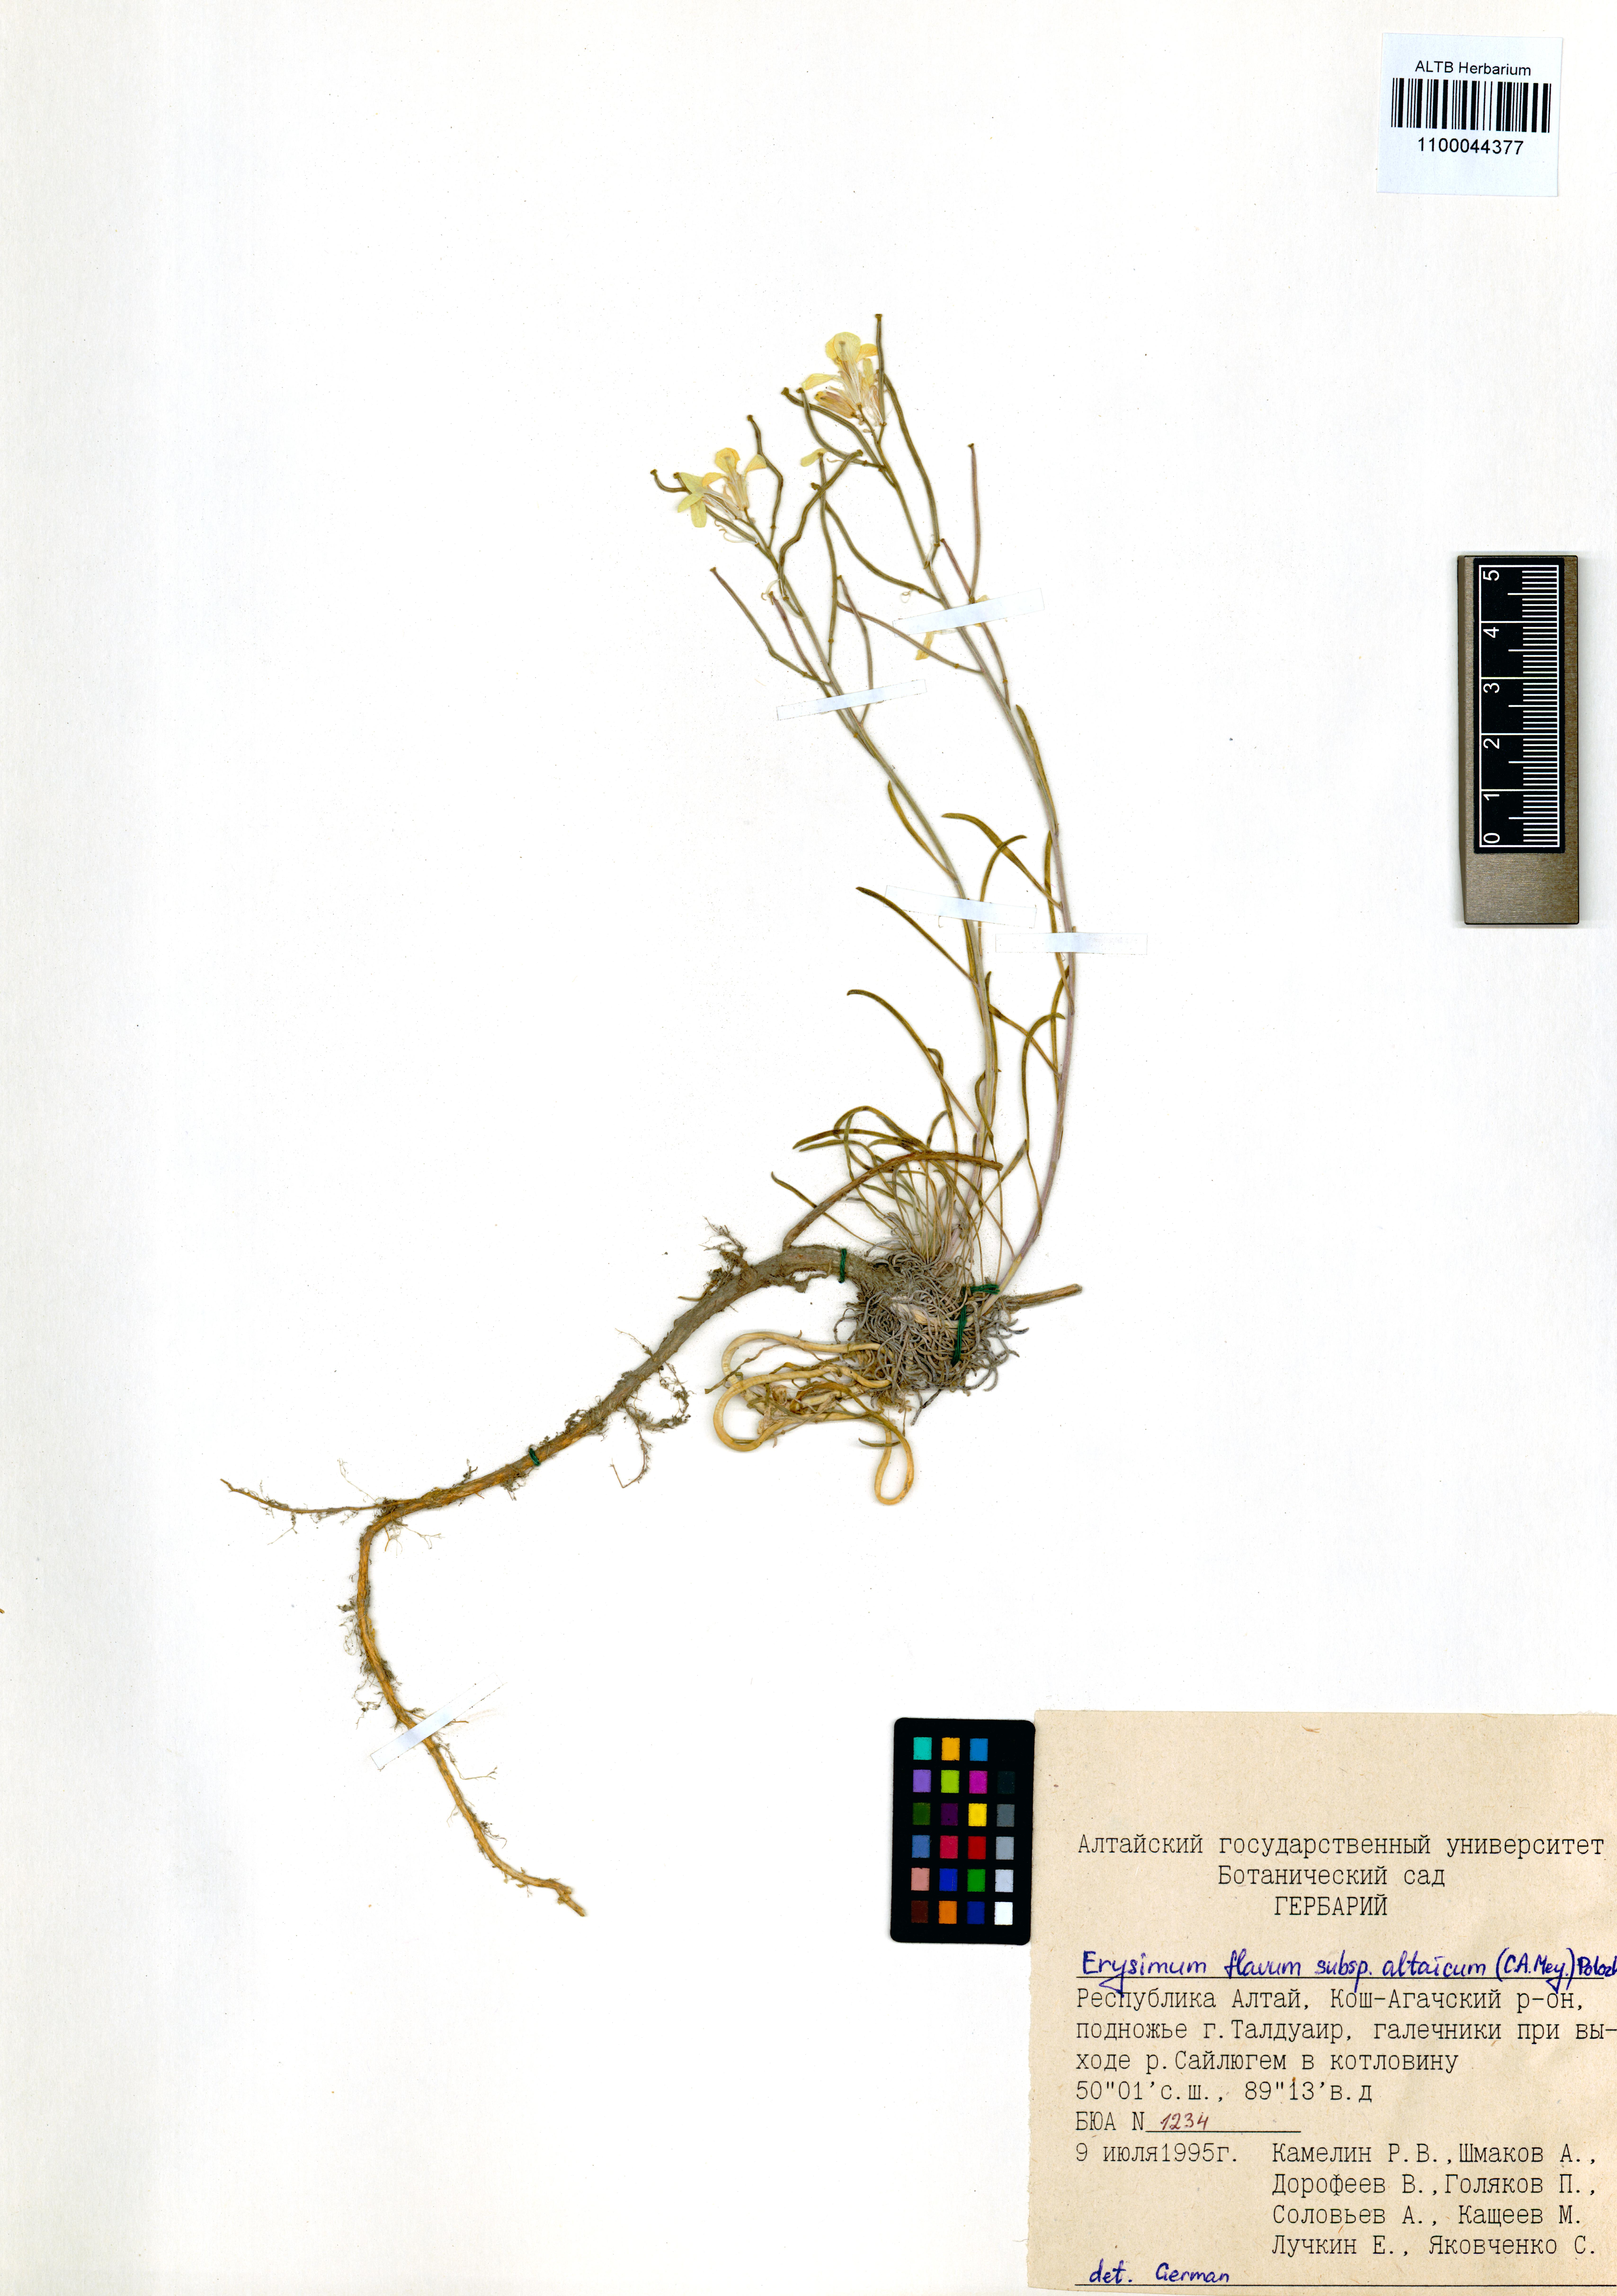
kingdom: Plantae
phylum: Tracheophyta
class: Magnoliopsida
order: Brassicales
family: Brassicaceae
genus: Erysimum
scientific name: Erysimum flavum
